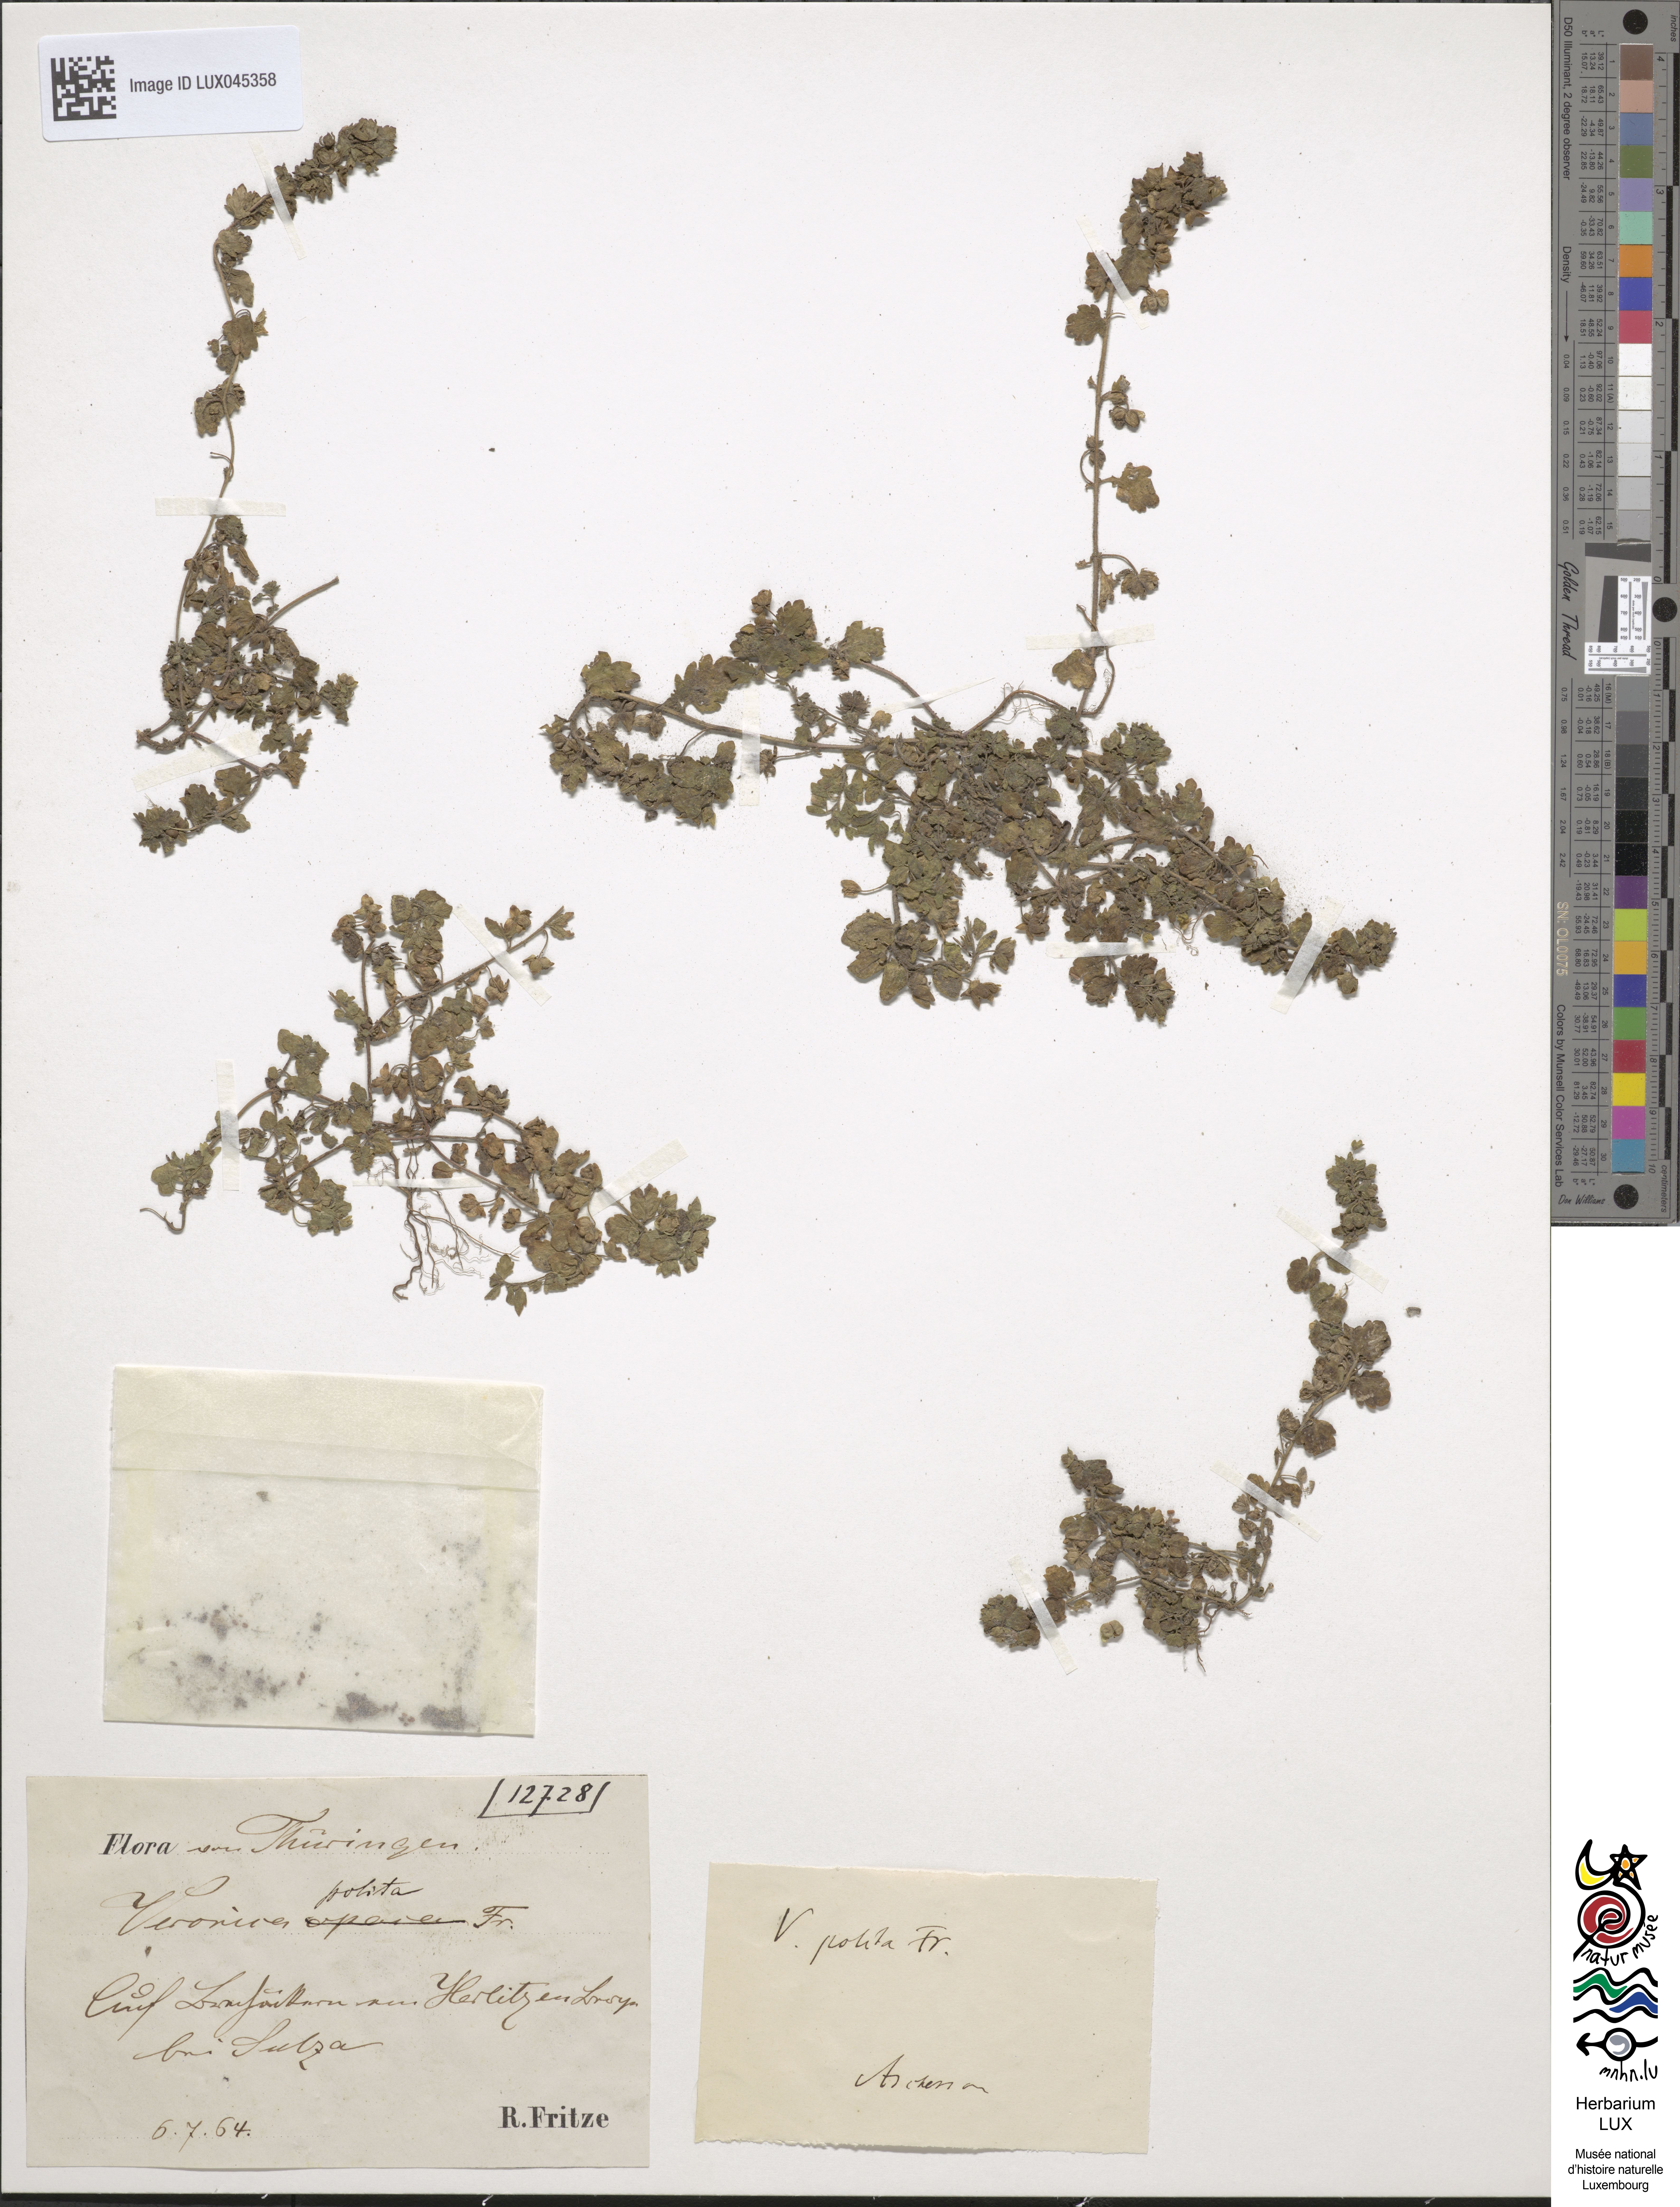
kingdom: Plantae
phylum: Tracheophyta
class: Magnoliopsida
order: Lamiales
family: Plantaginaceae
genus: Veronica
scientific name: Veronica polita
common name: Grey field-speedwell
